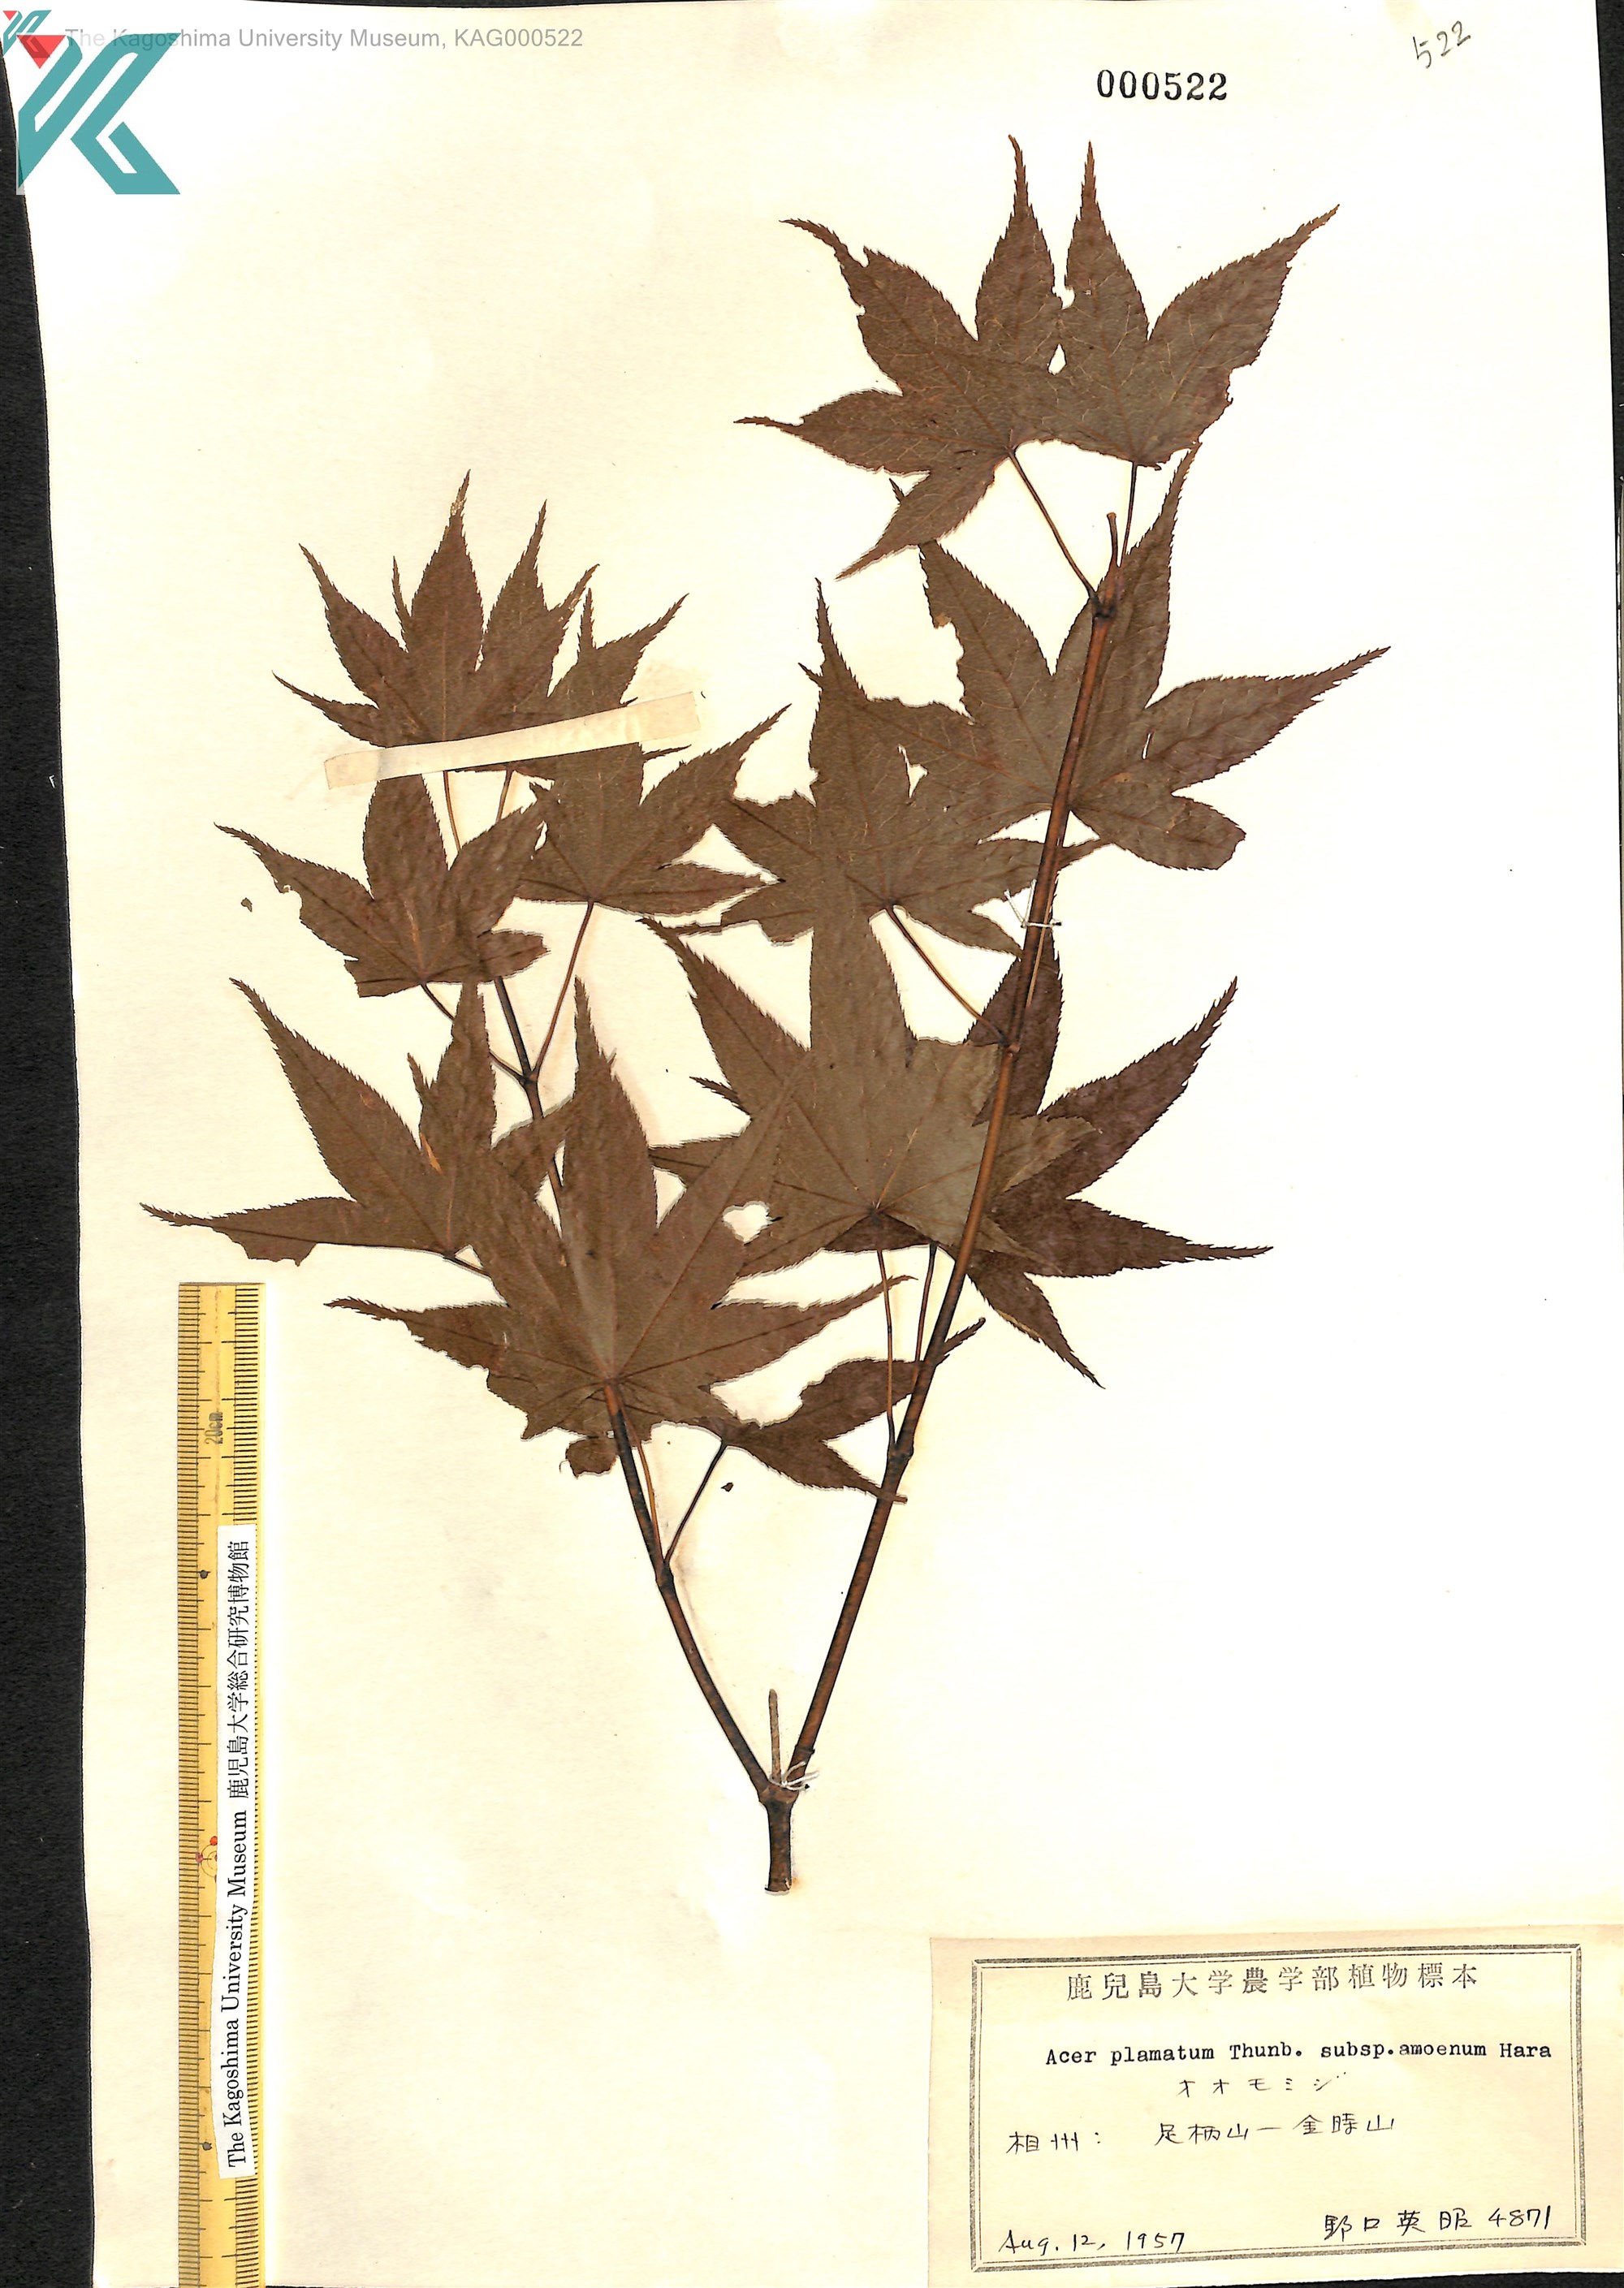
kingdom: Plantae
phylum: Tracheophyta
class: Magnoliopsida
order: Sapindales
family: Sapindaceae
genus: Acer
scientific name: Acer palmatum
